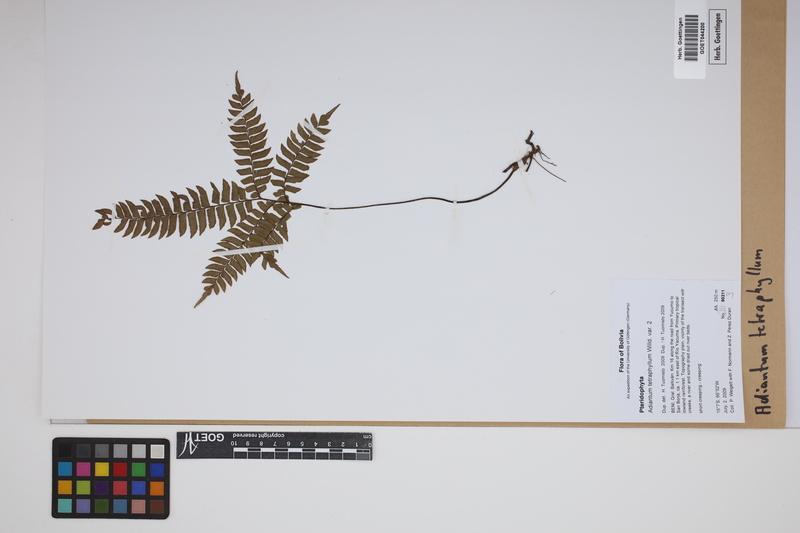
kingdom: Plantae
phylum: Tracheophyta
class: Polypodiopsida
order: Polypodiales
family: Pteridaceae
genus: Adiantum
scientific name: Adiantum tetraphyllum
